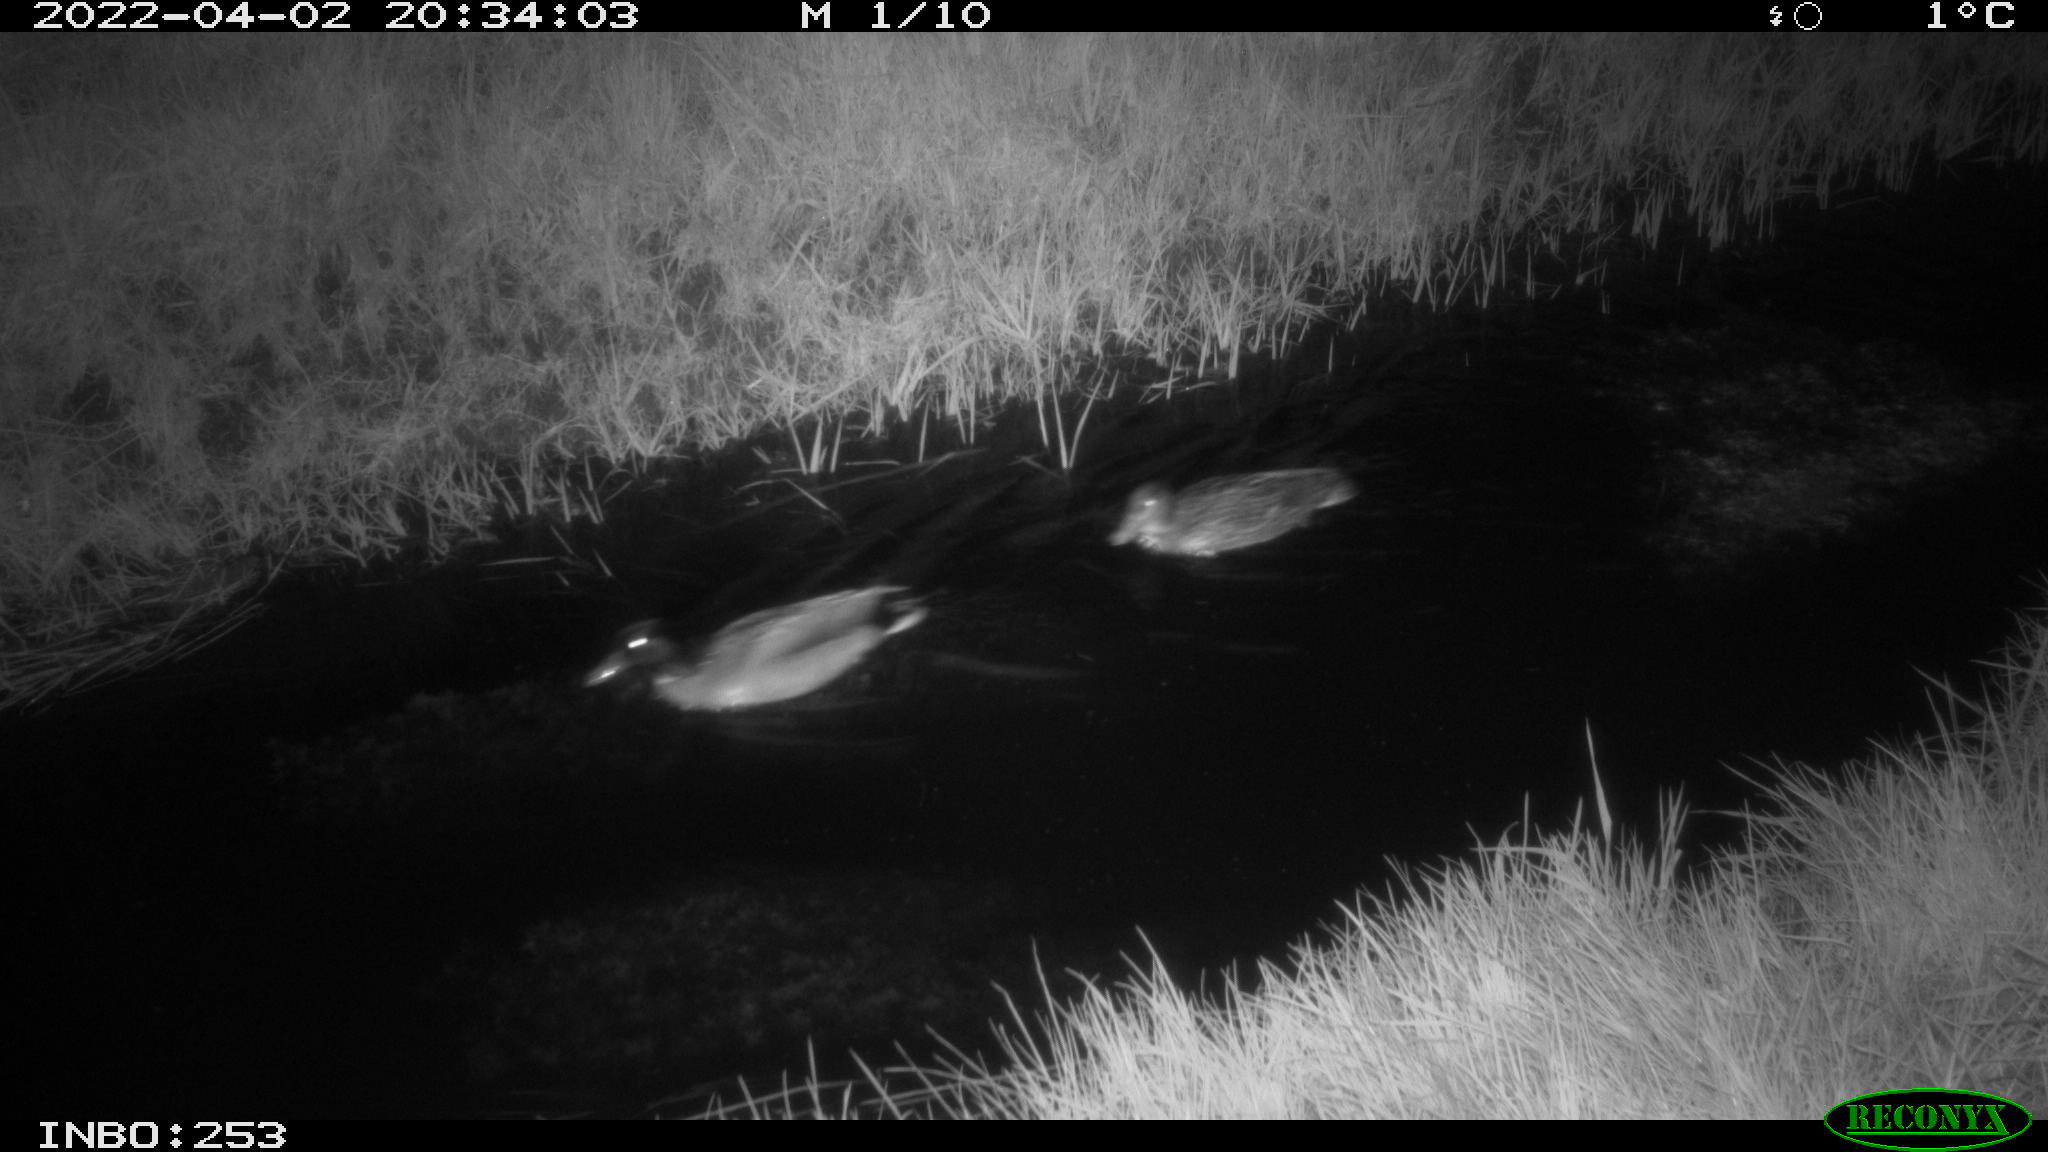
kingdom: Animalia
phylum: Chordata
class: Aves
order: Anseriformes
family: Anatidae
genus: Anas
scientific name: Anas platyrhynchos
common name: Mallard
